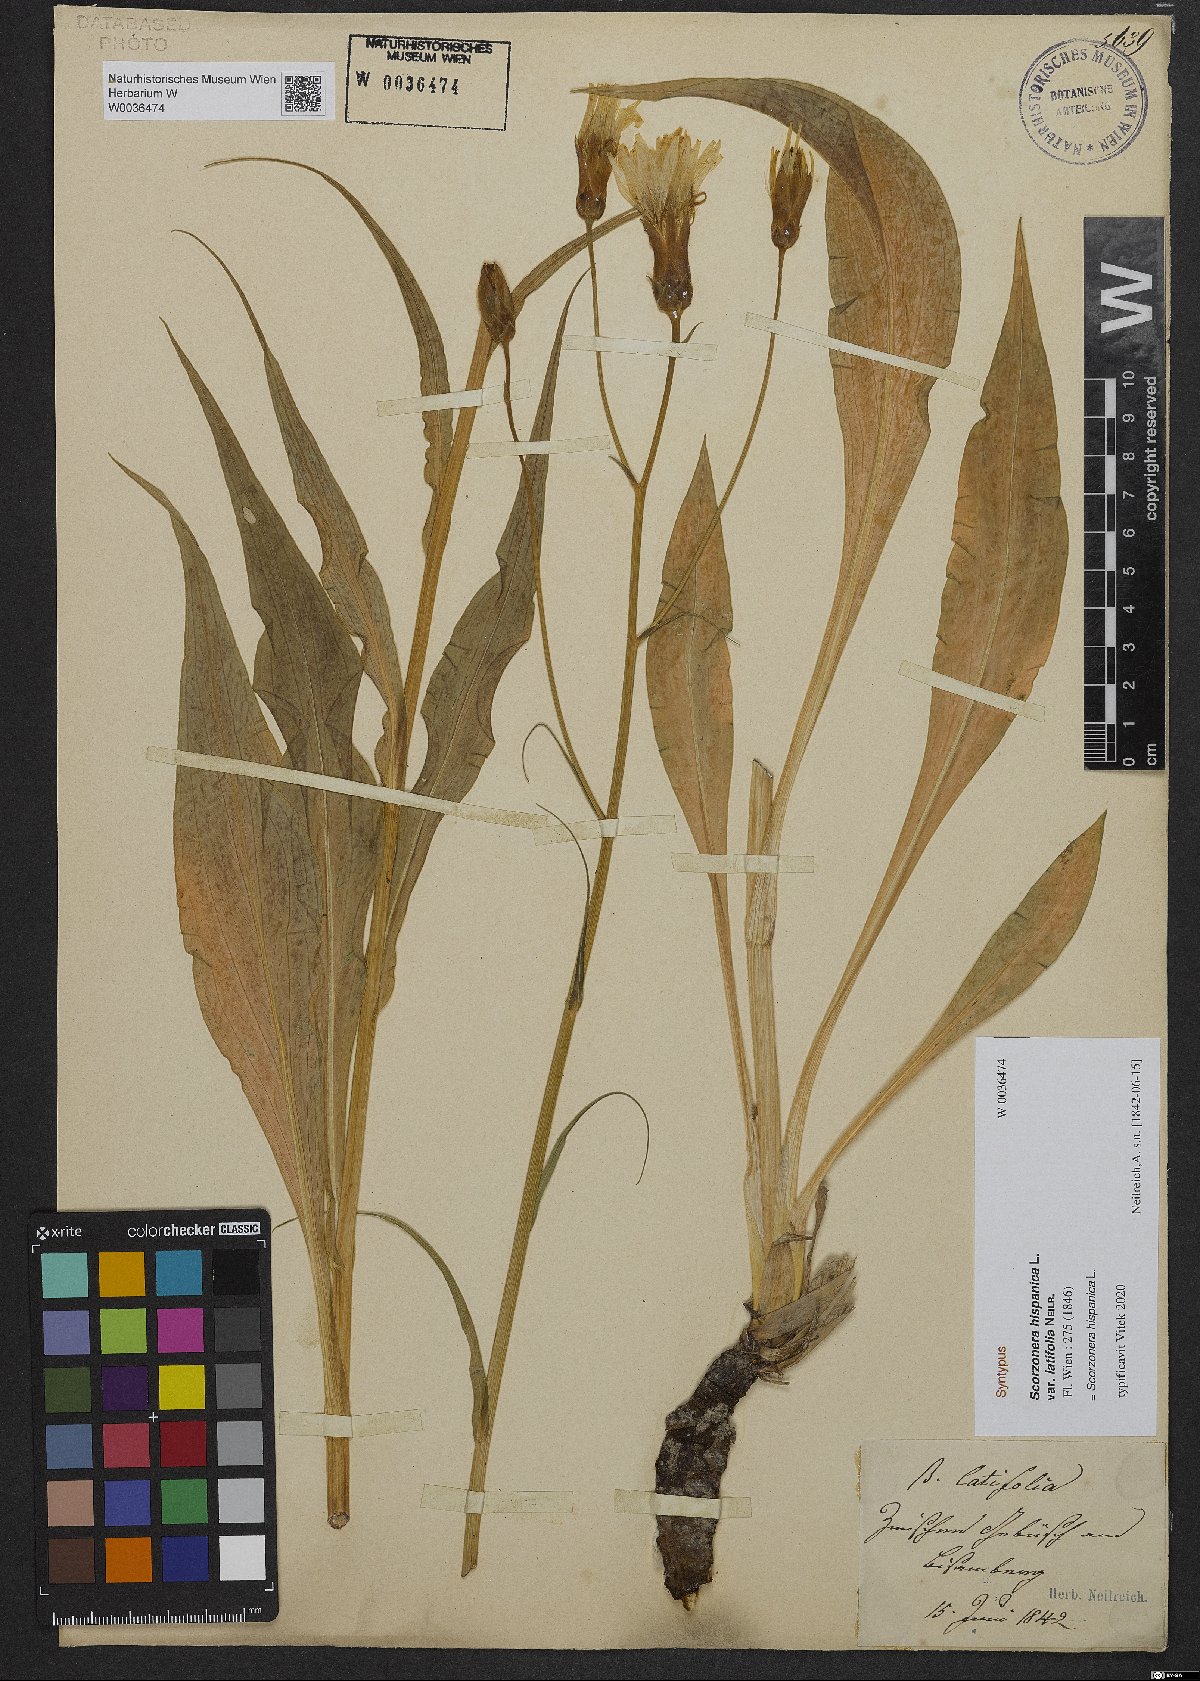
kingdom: Plantae
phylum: Tracheophyta
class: Magnoliopsida
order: Asterales
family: Asteraceae
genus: Pseudopodospermum
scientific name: Pseudopodospermum hispanicum
